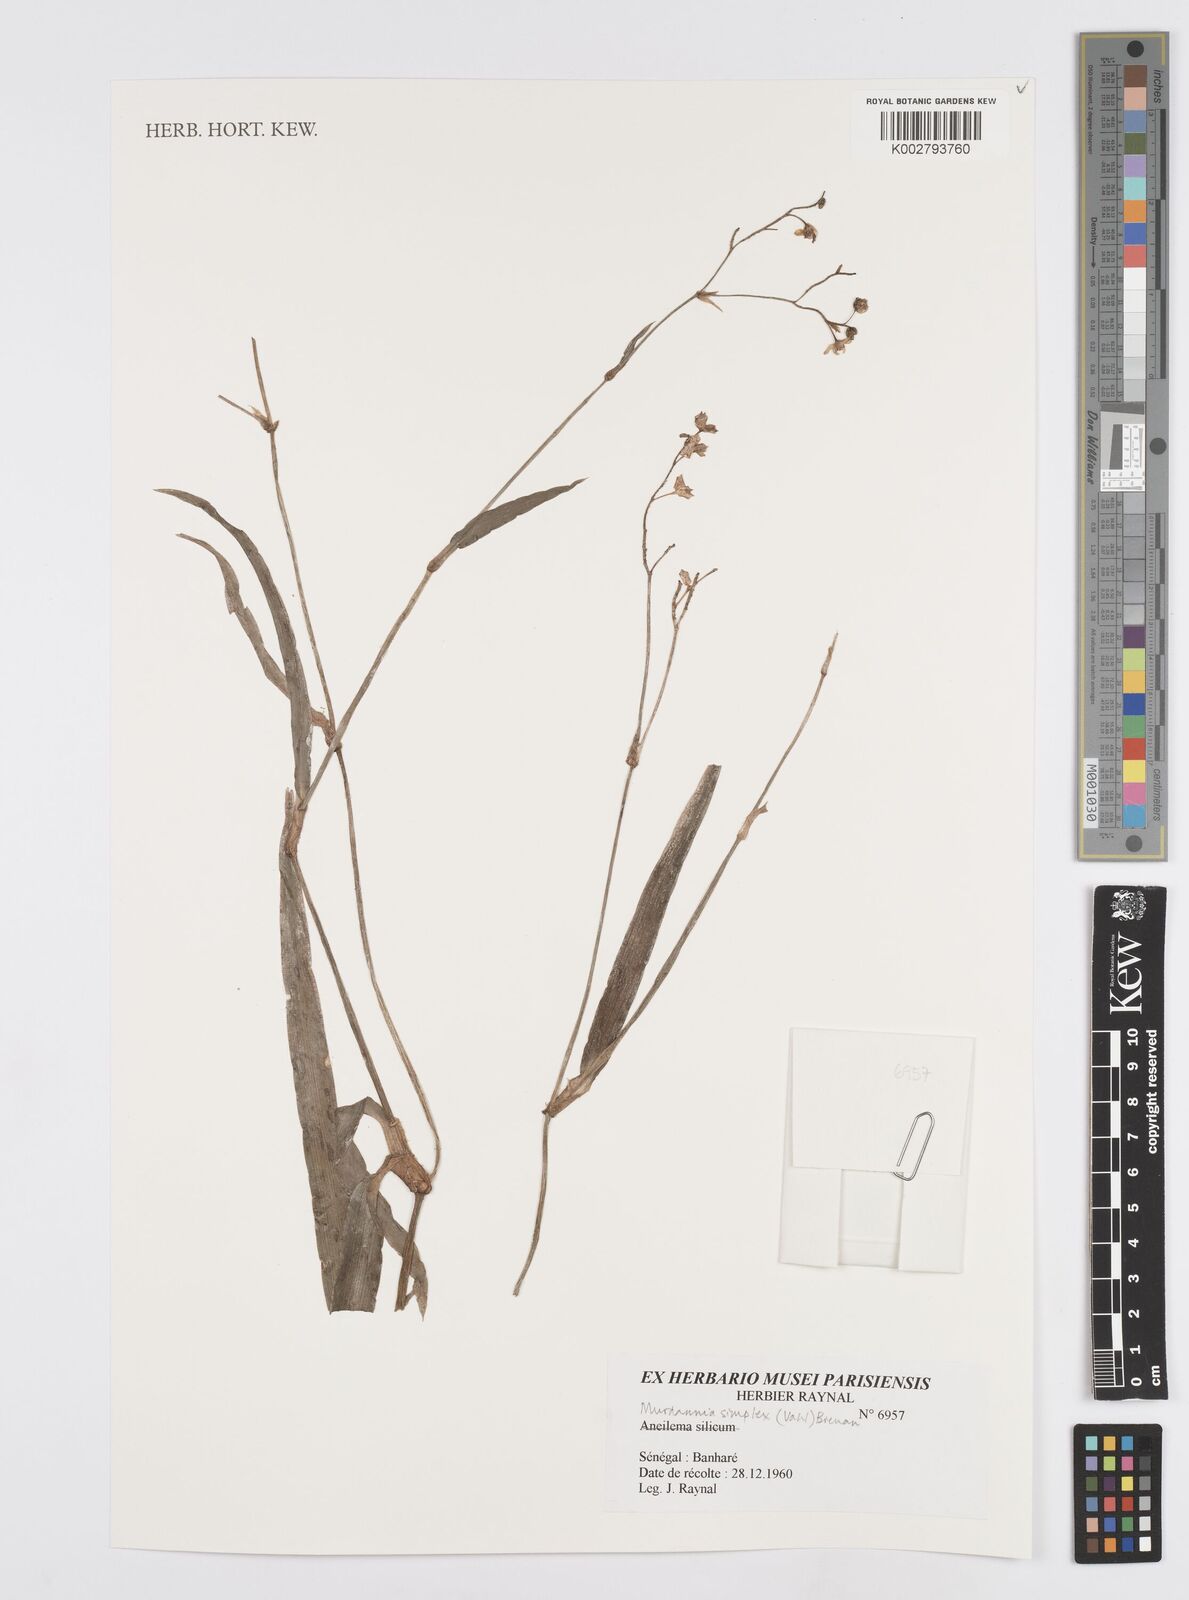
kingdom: Plantae
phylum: Tracheophyta
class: Liliopsida
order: Commelinales
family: Commelinaceae
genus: Murdannia
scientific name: Murdannia simplex
